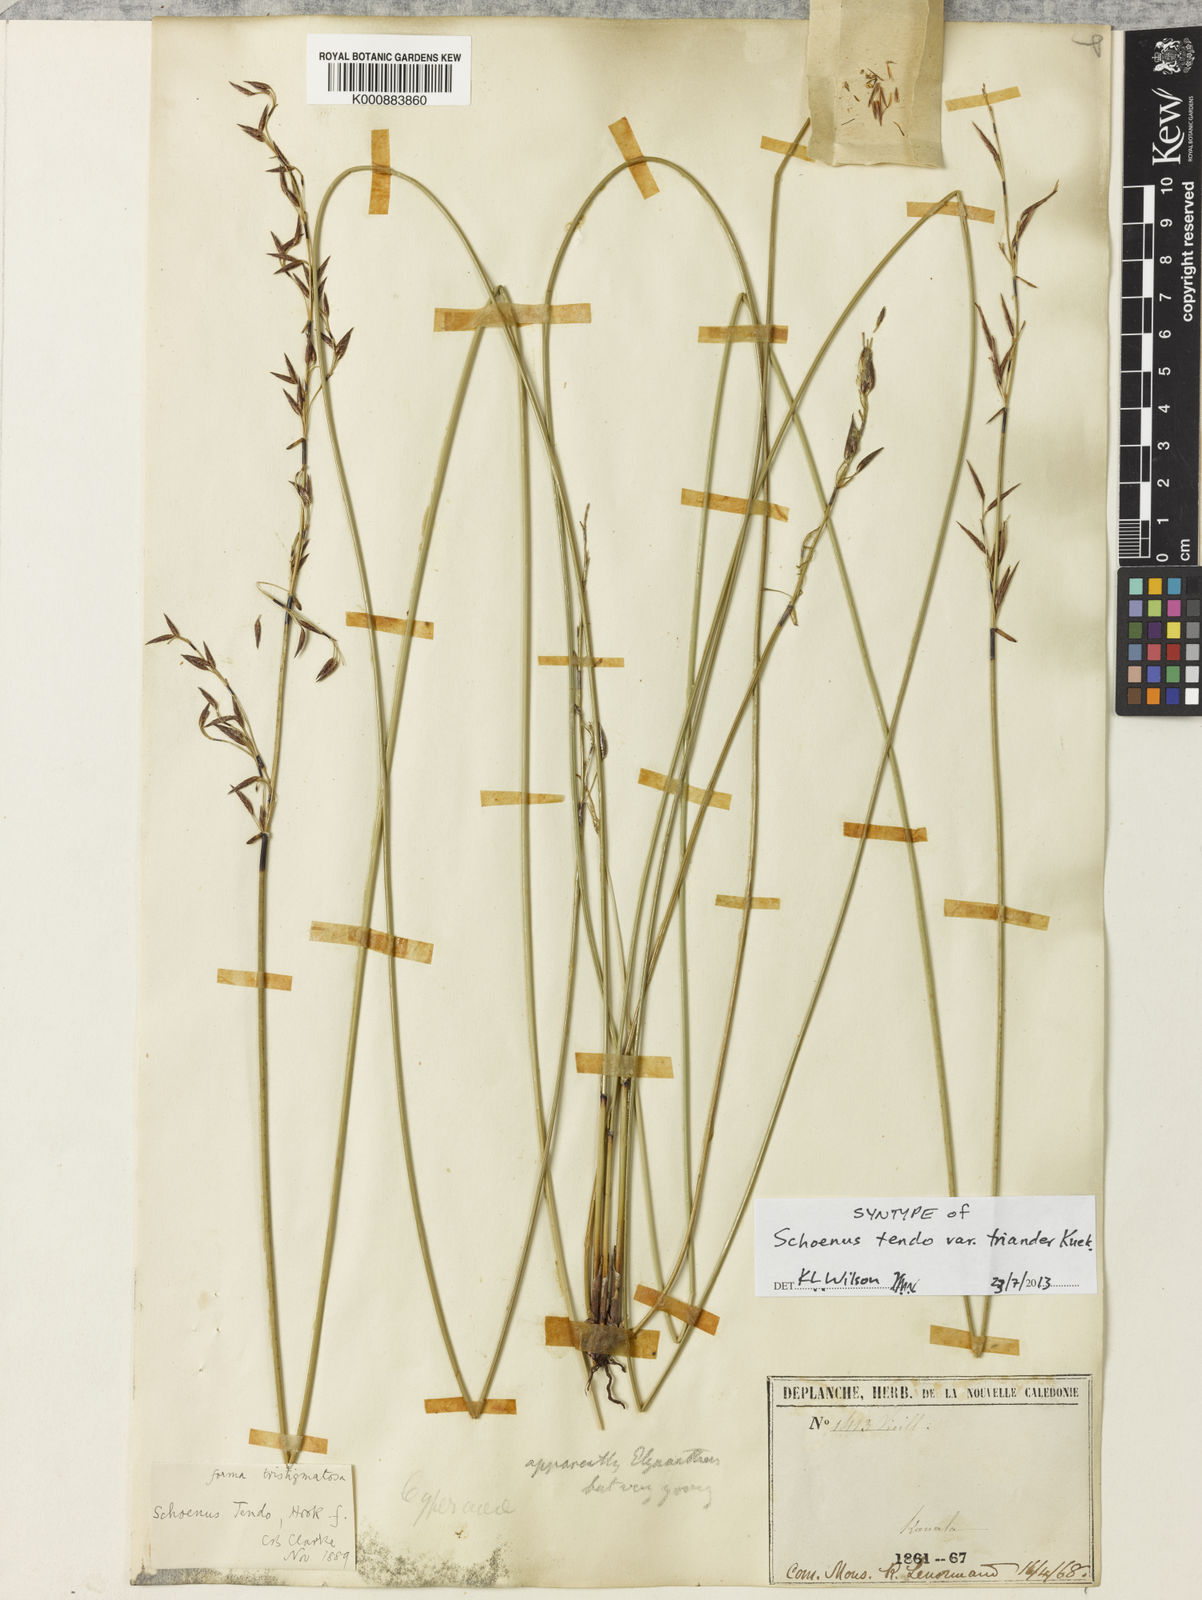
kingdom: Plantae
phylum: Tracheophyta
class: Liliopsida
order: Poales
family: Cyperaceae
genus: Schoenus
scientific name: Schoenus tendo
